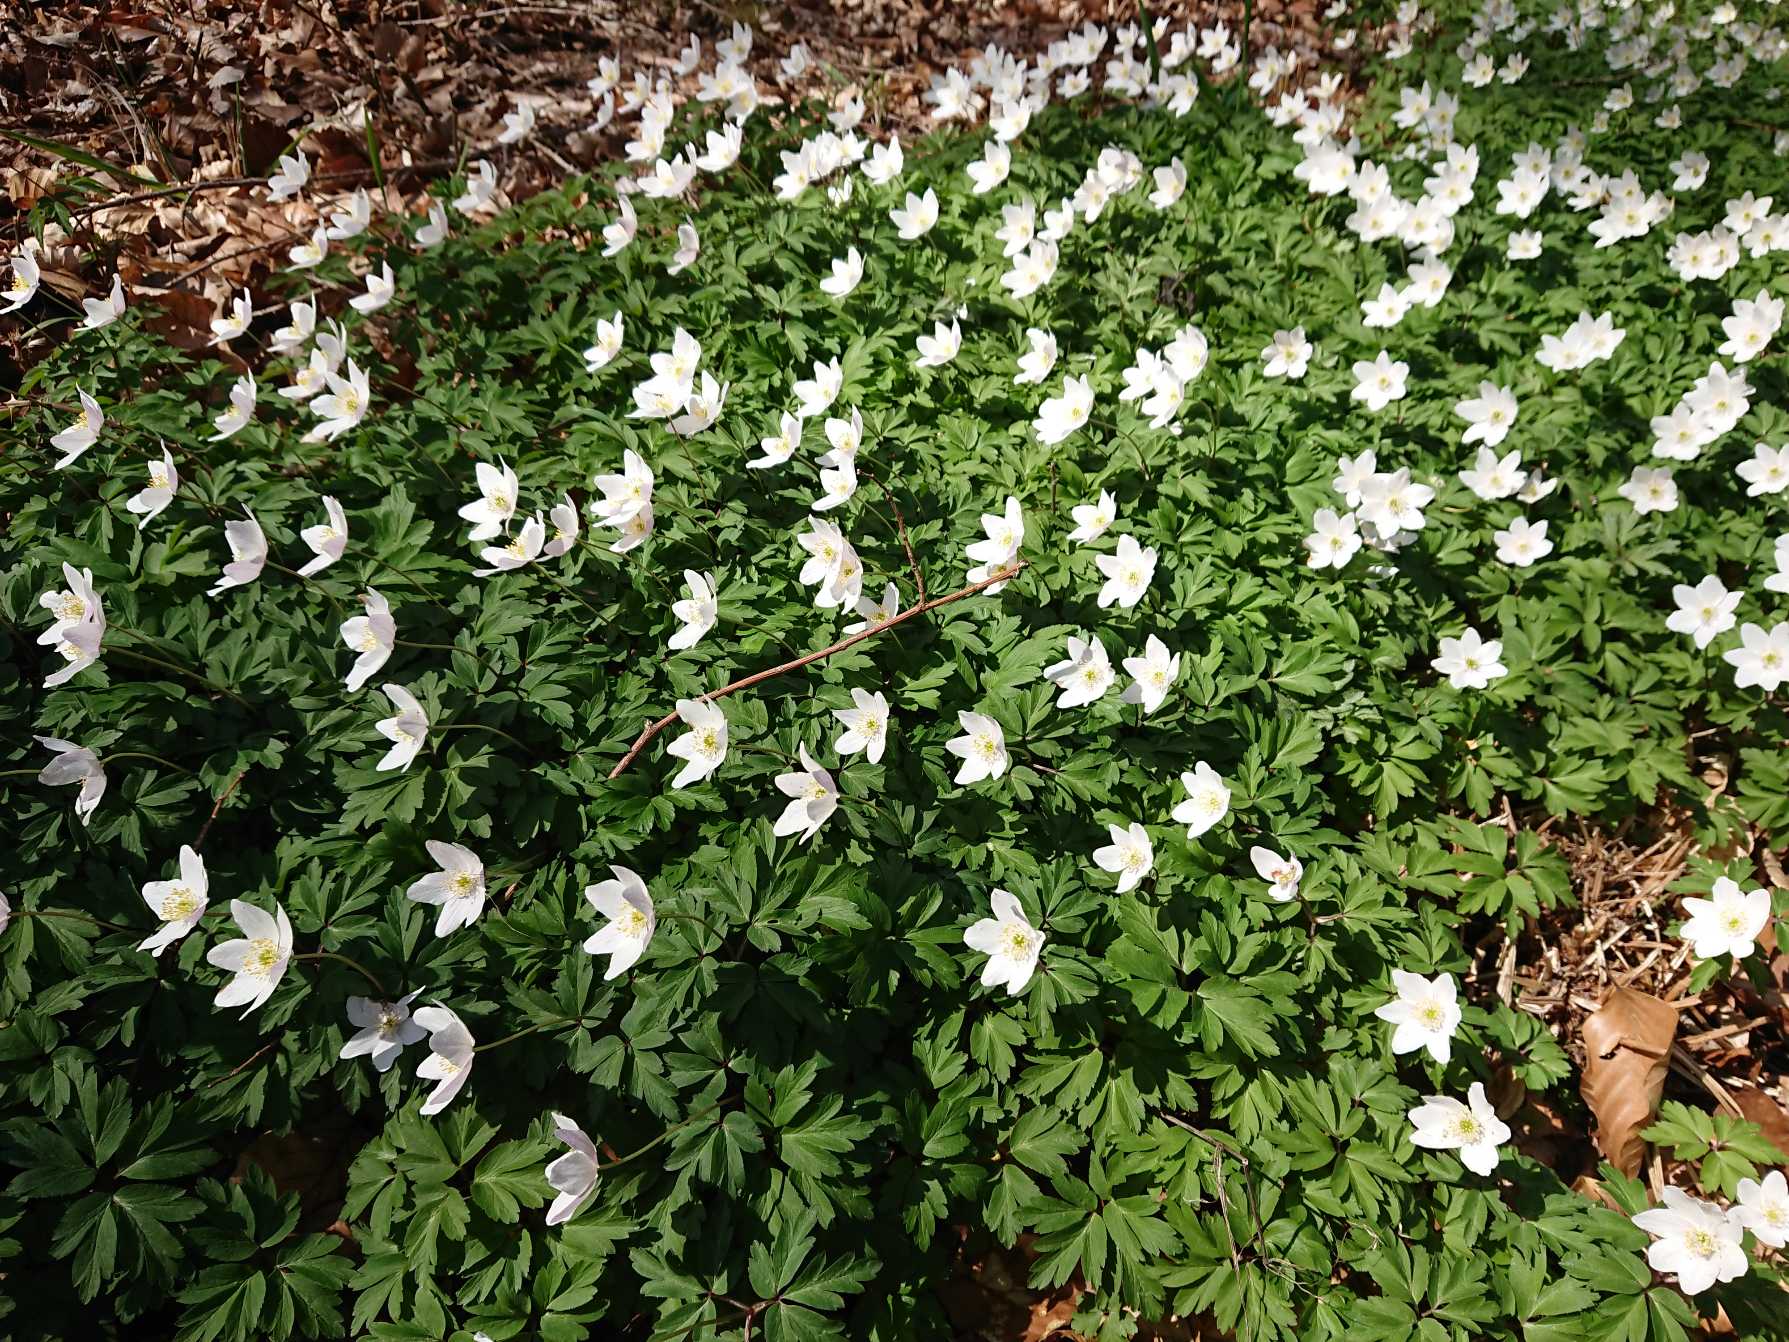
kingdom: Plantae
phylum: Tracheophyta
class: Magnoliopsida
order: Ranunculales
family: Ranunculaceae
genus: Anemone
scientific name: Anemone nemorosa
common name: Hvid anemone
